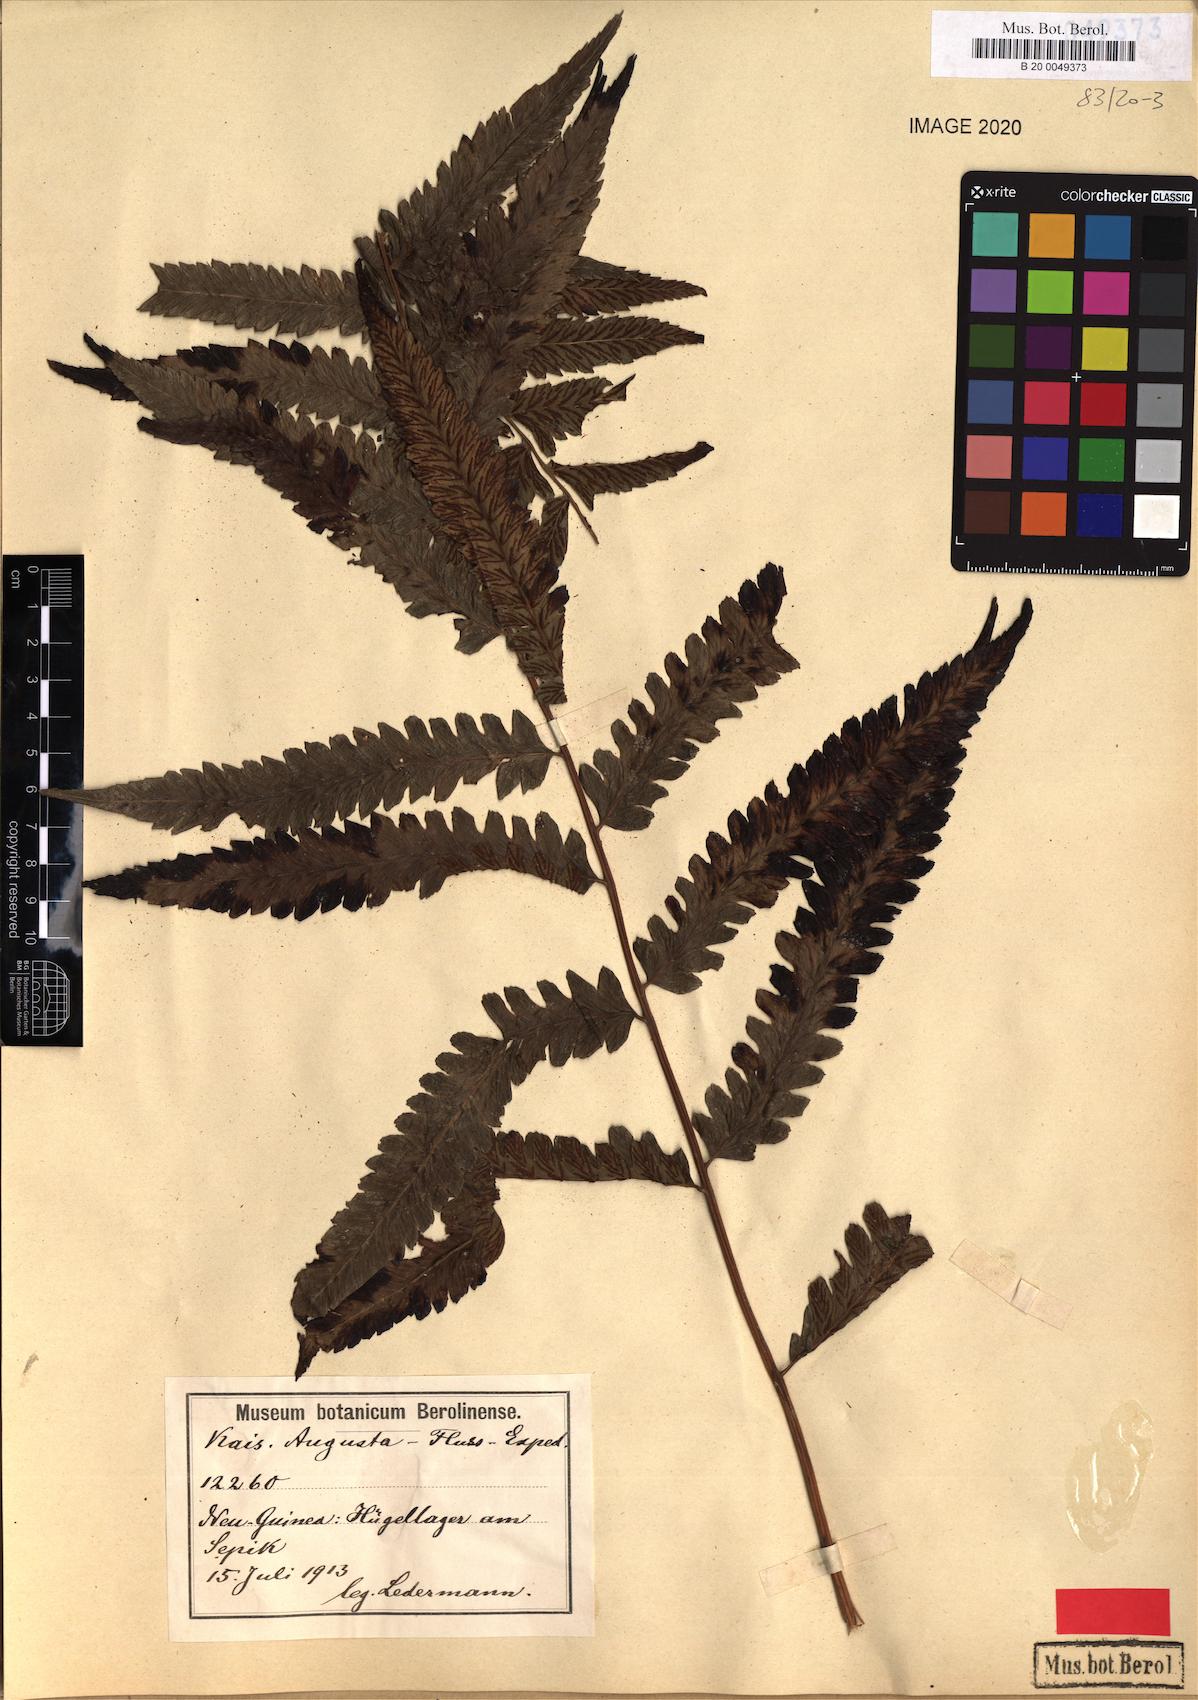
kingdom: Plantae
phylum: Tracheophyta
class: Polypodiopsida
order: Polypodiales
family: Athyriaceae
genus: Diplazium
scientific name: Diplazium pseudoshepherdioides
